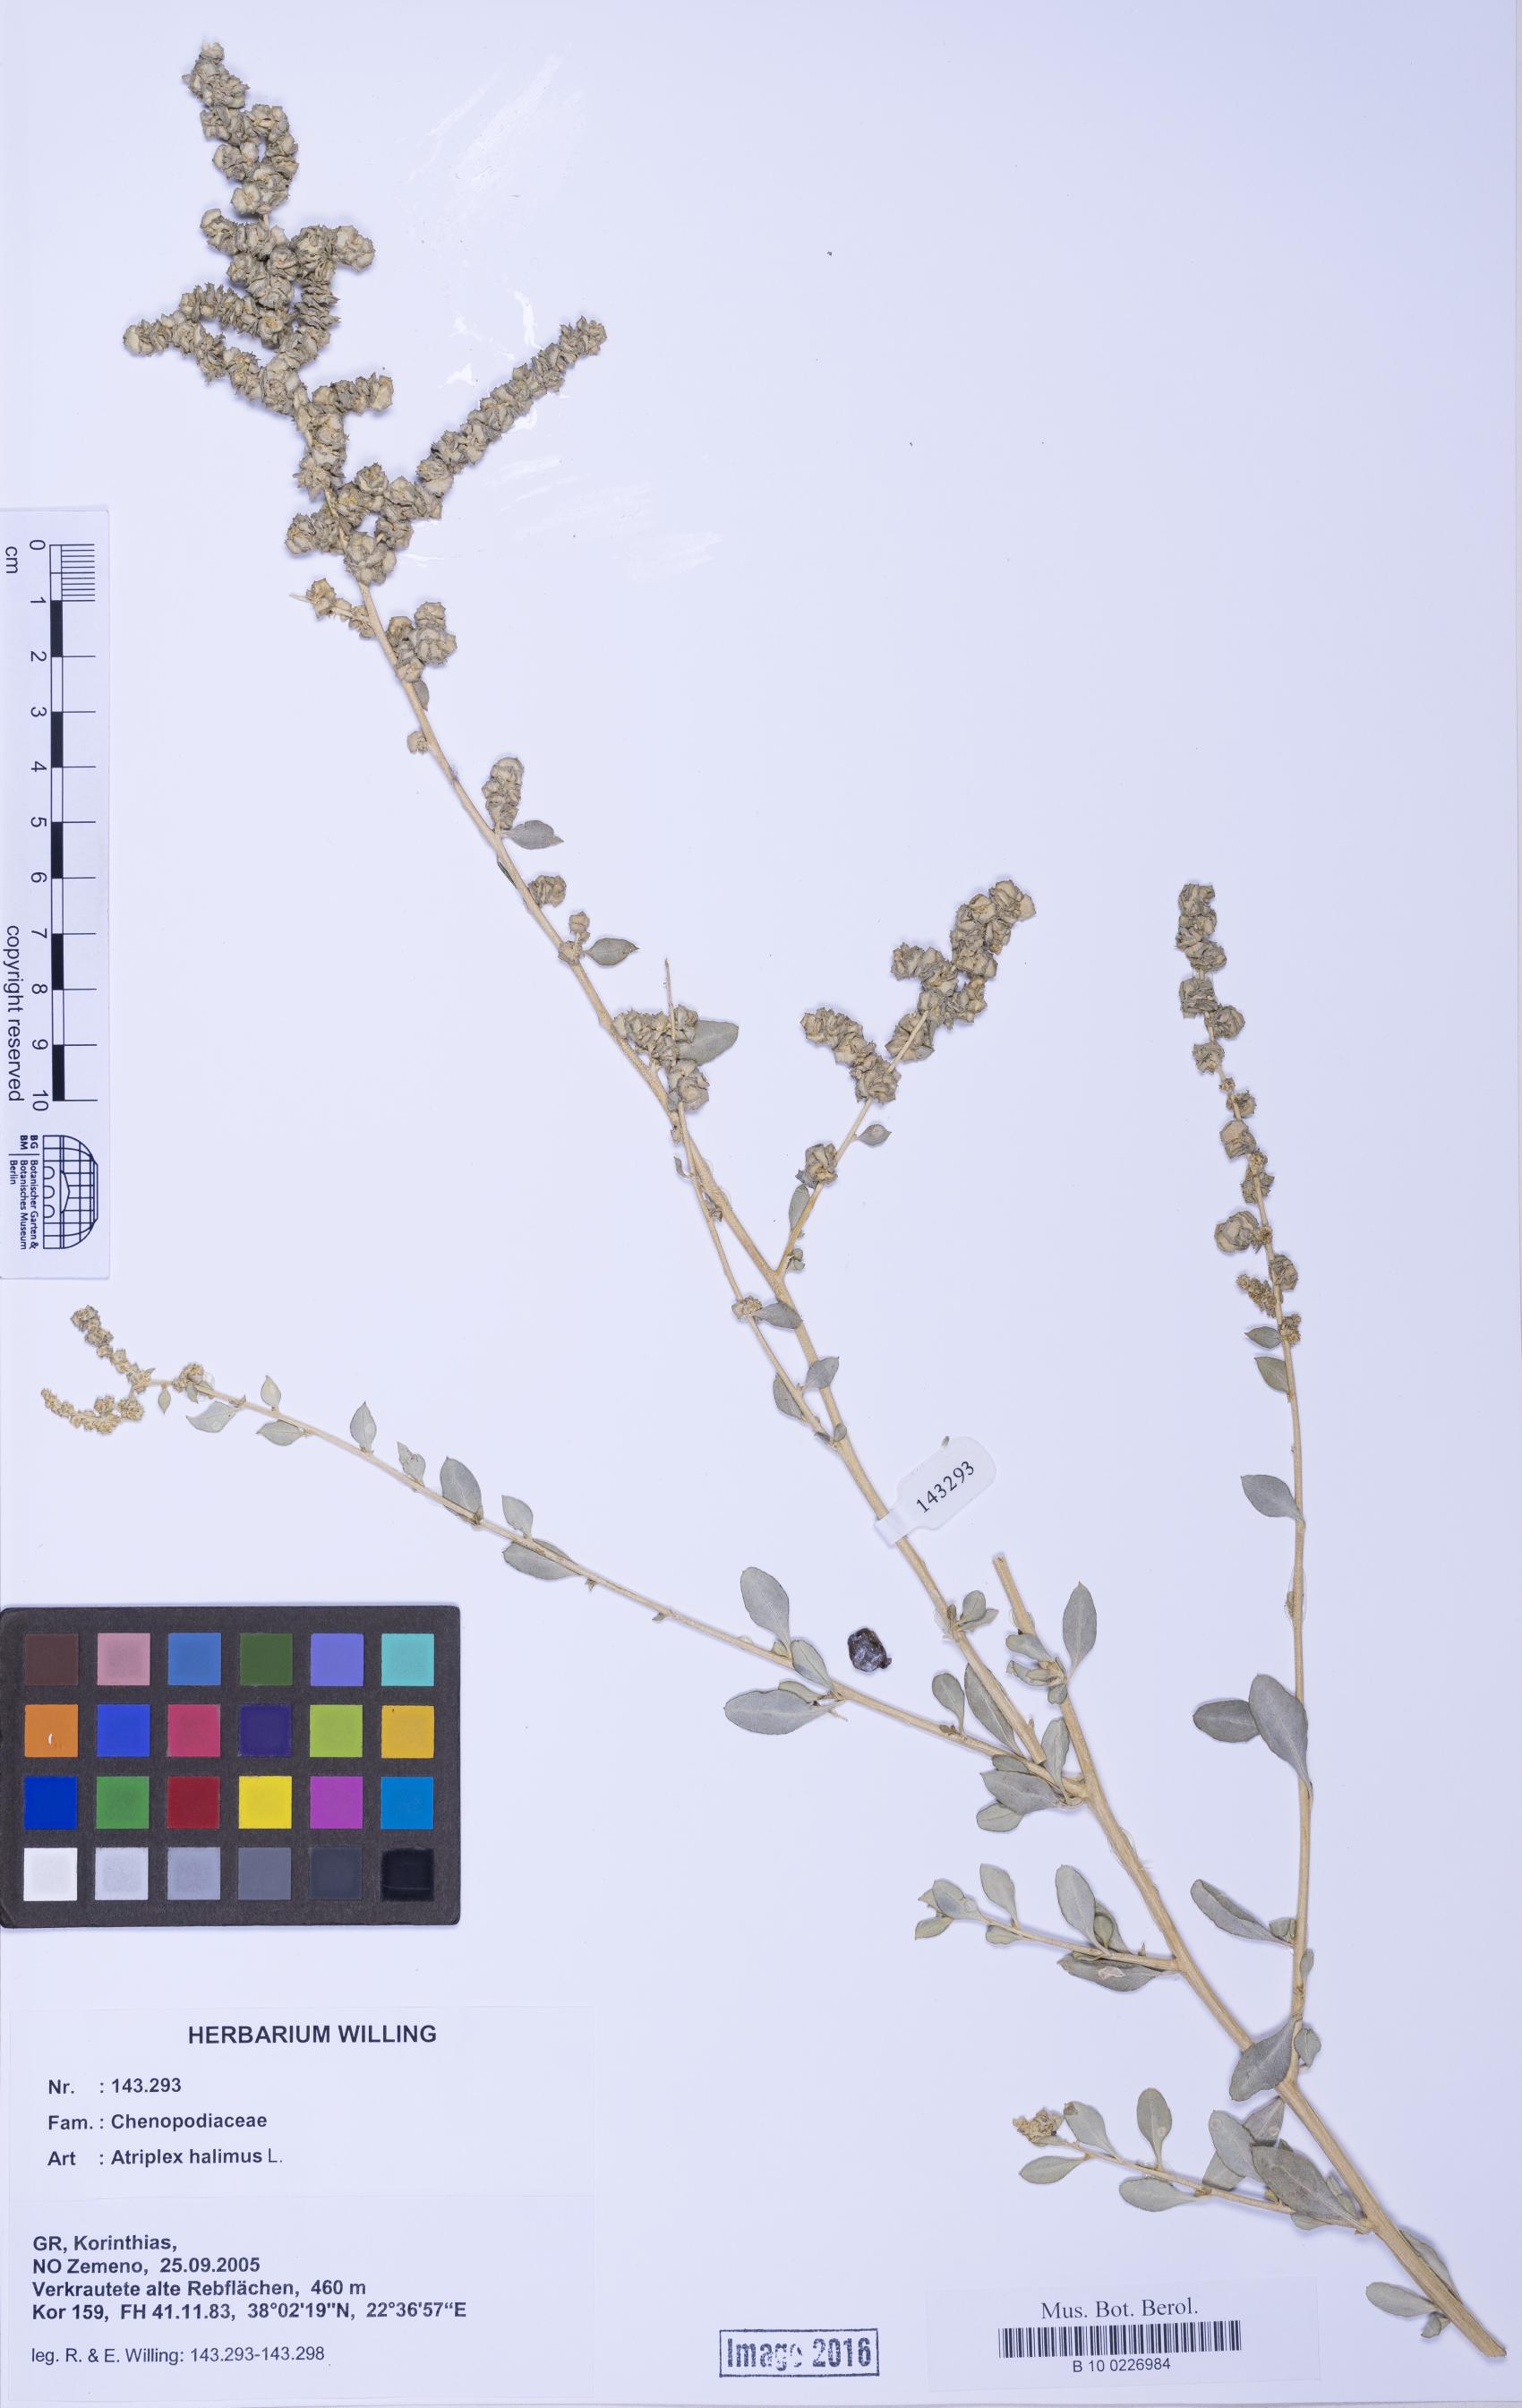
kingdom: Plantae
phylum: Tracheophyta
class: Liliopsida
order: Poales
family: Poaceae
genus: Agrostis
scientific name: Agrostis gigantea
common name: Black bent
